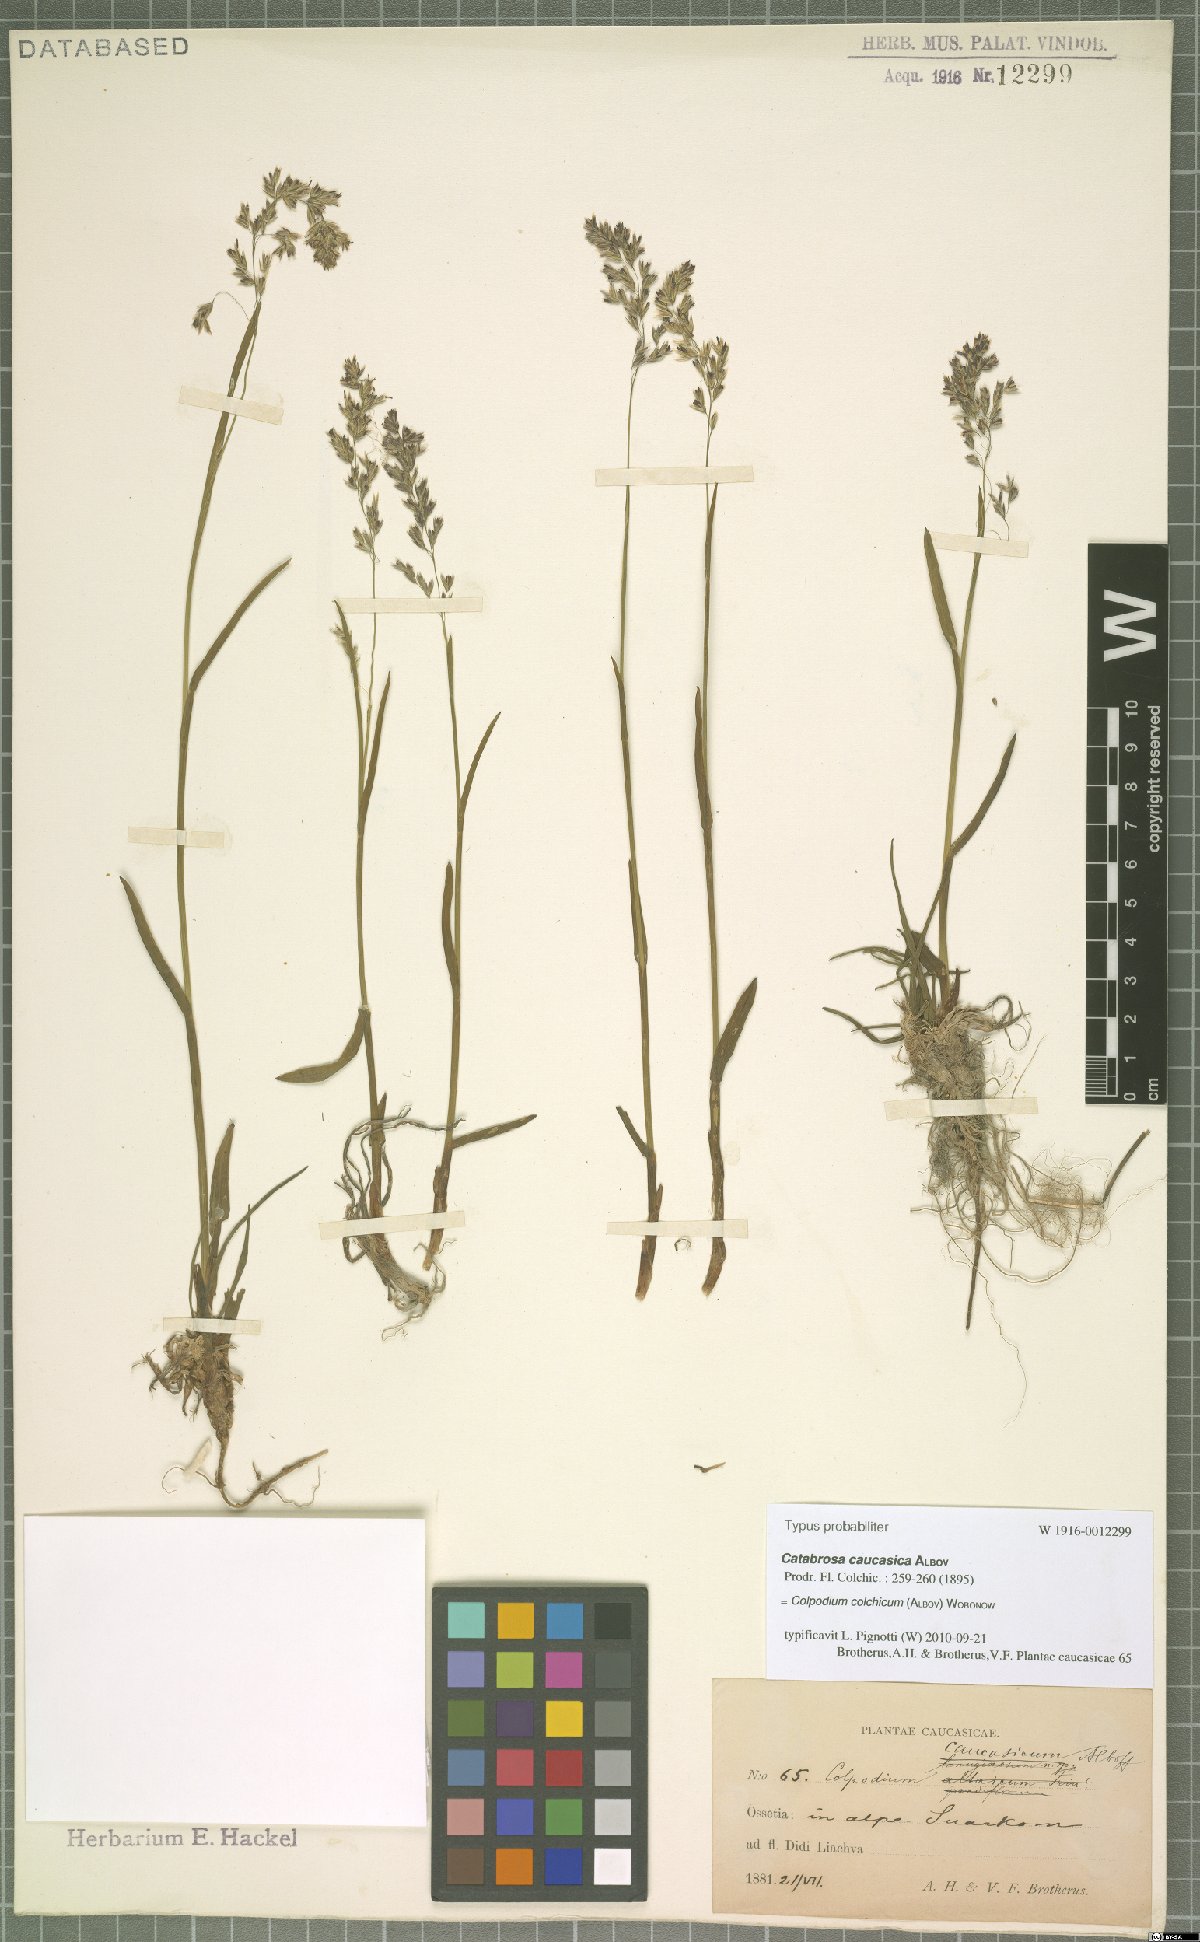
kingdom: Plantae
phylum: Tracheophyta
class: Liliopsida
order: Poales
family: Poaceae
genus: Paracolpodium
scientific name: Paracolpodium colchicum
